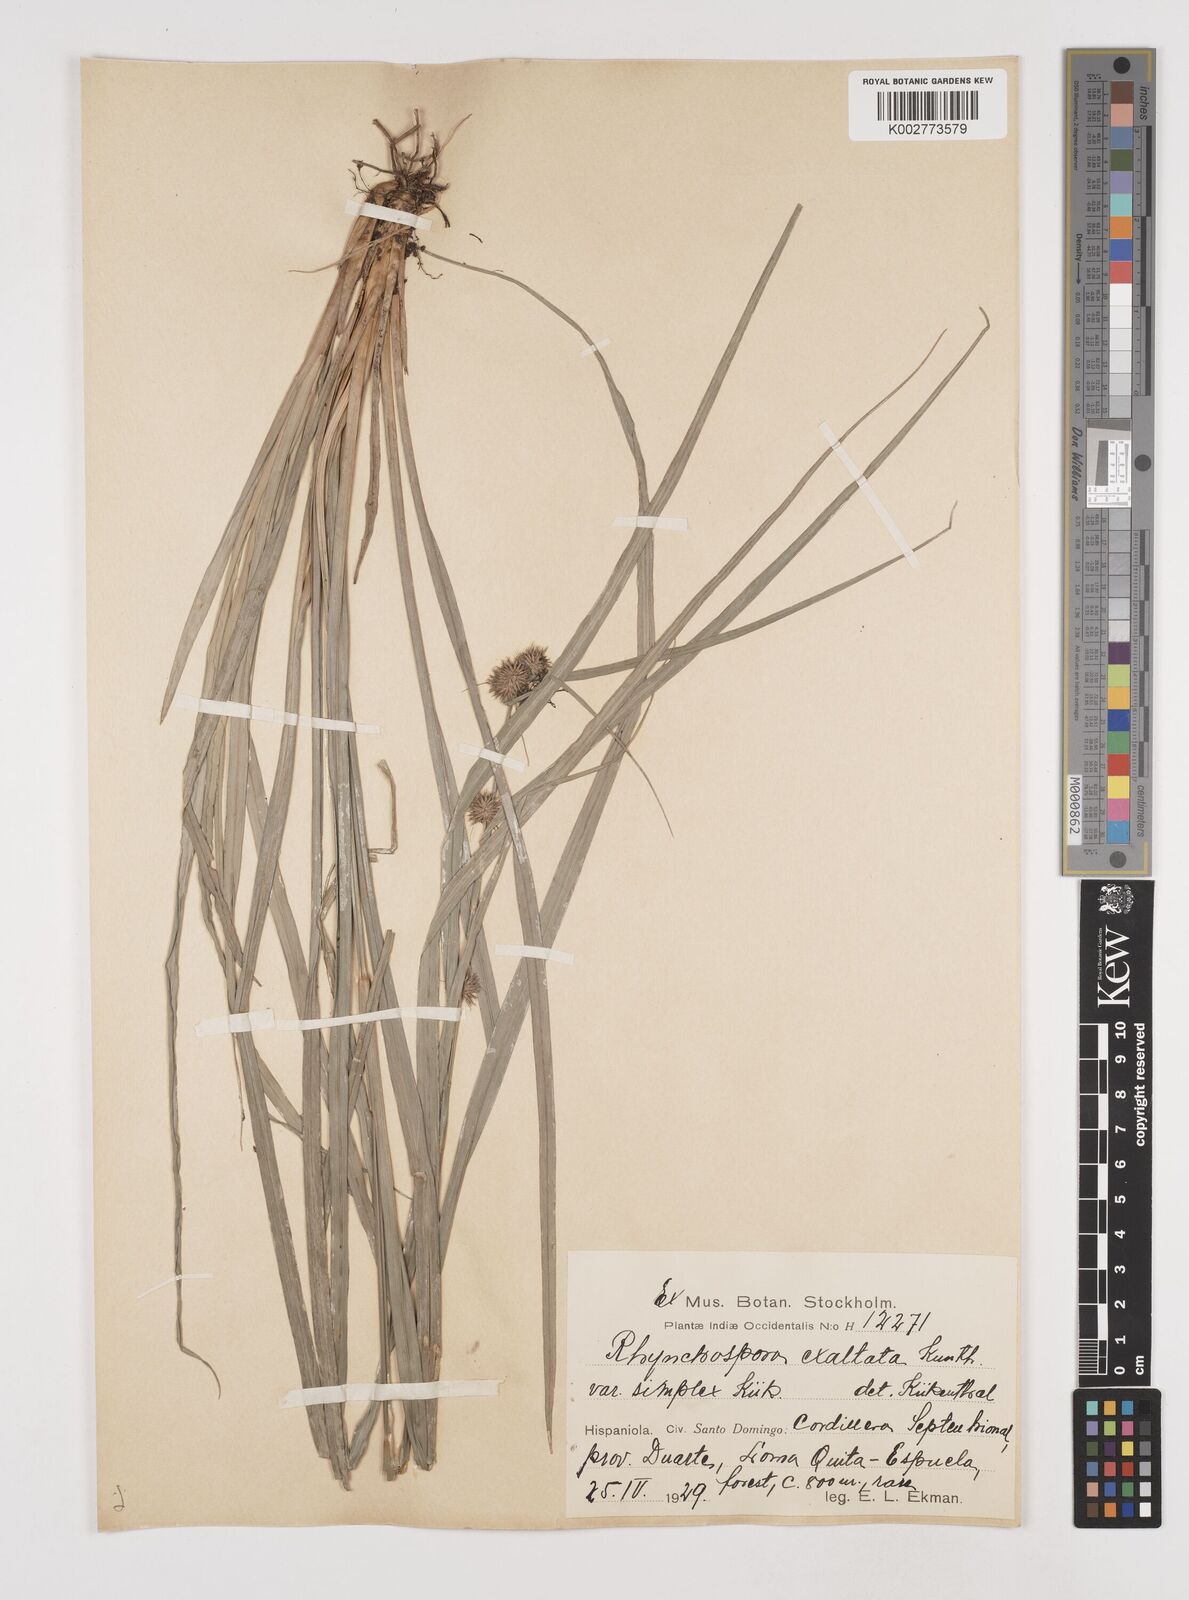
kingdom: Plantae
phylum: Tracheophyta
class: Liliopsida
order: Poales
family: Cyperaceae
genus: Rhynchospora
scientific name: Rhynchospora exaltata
